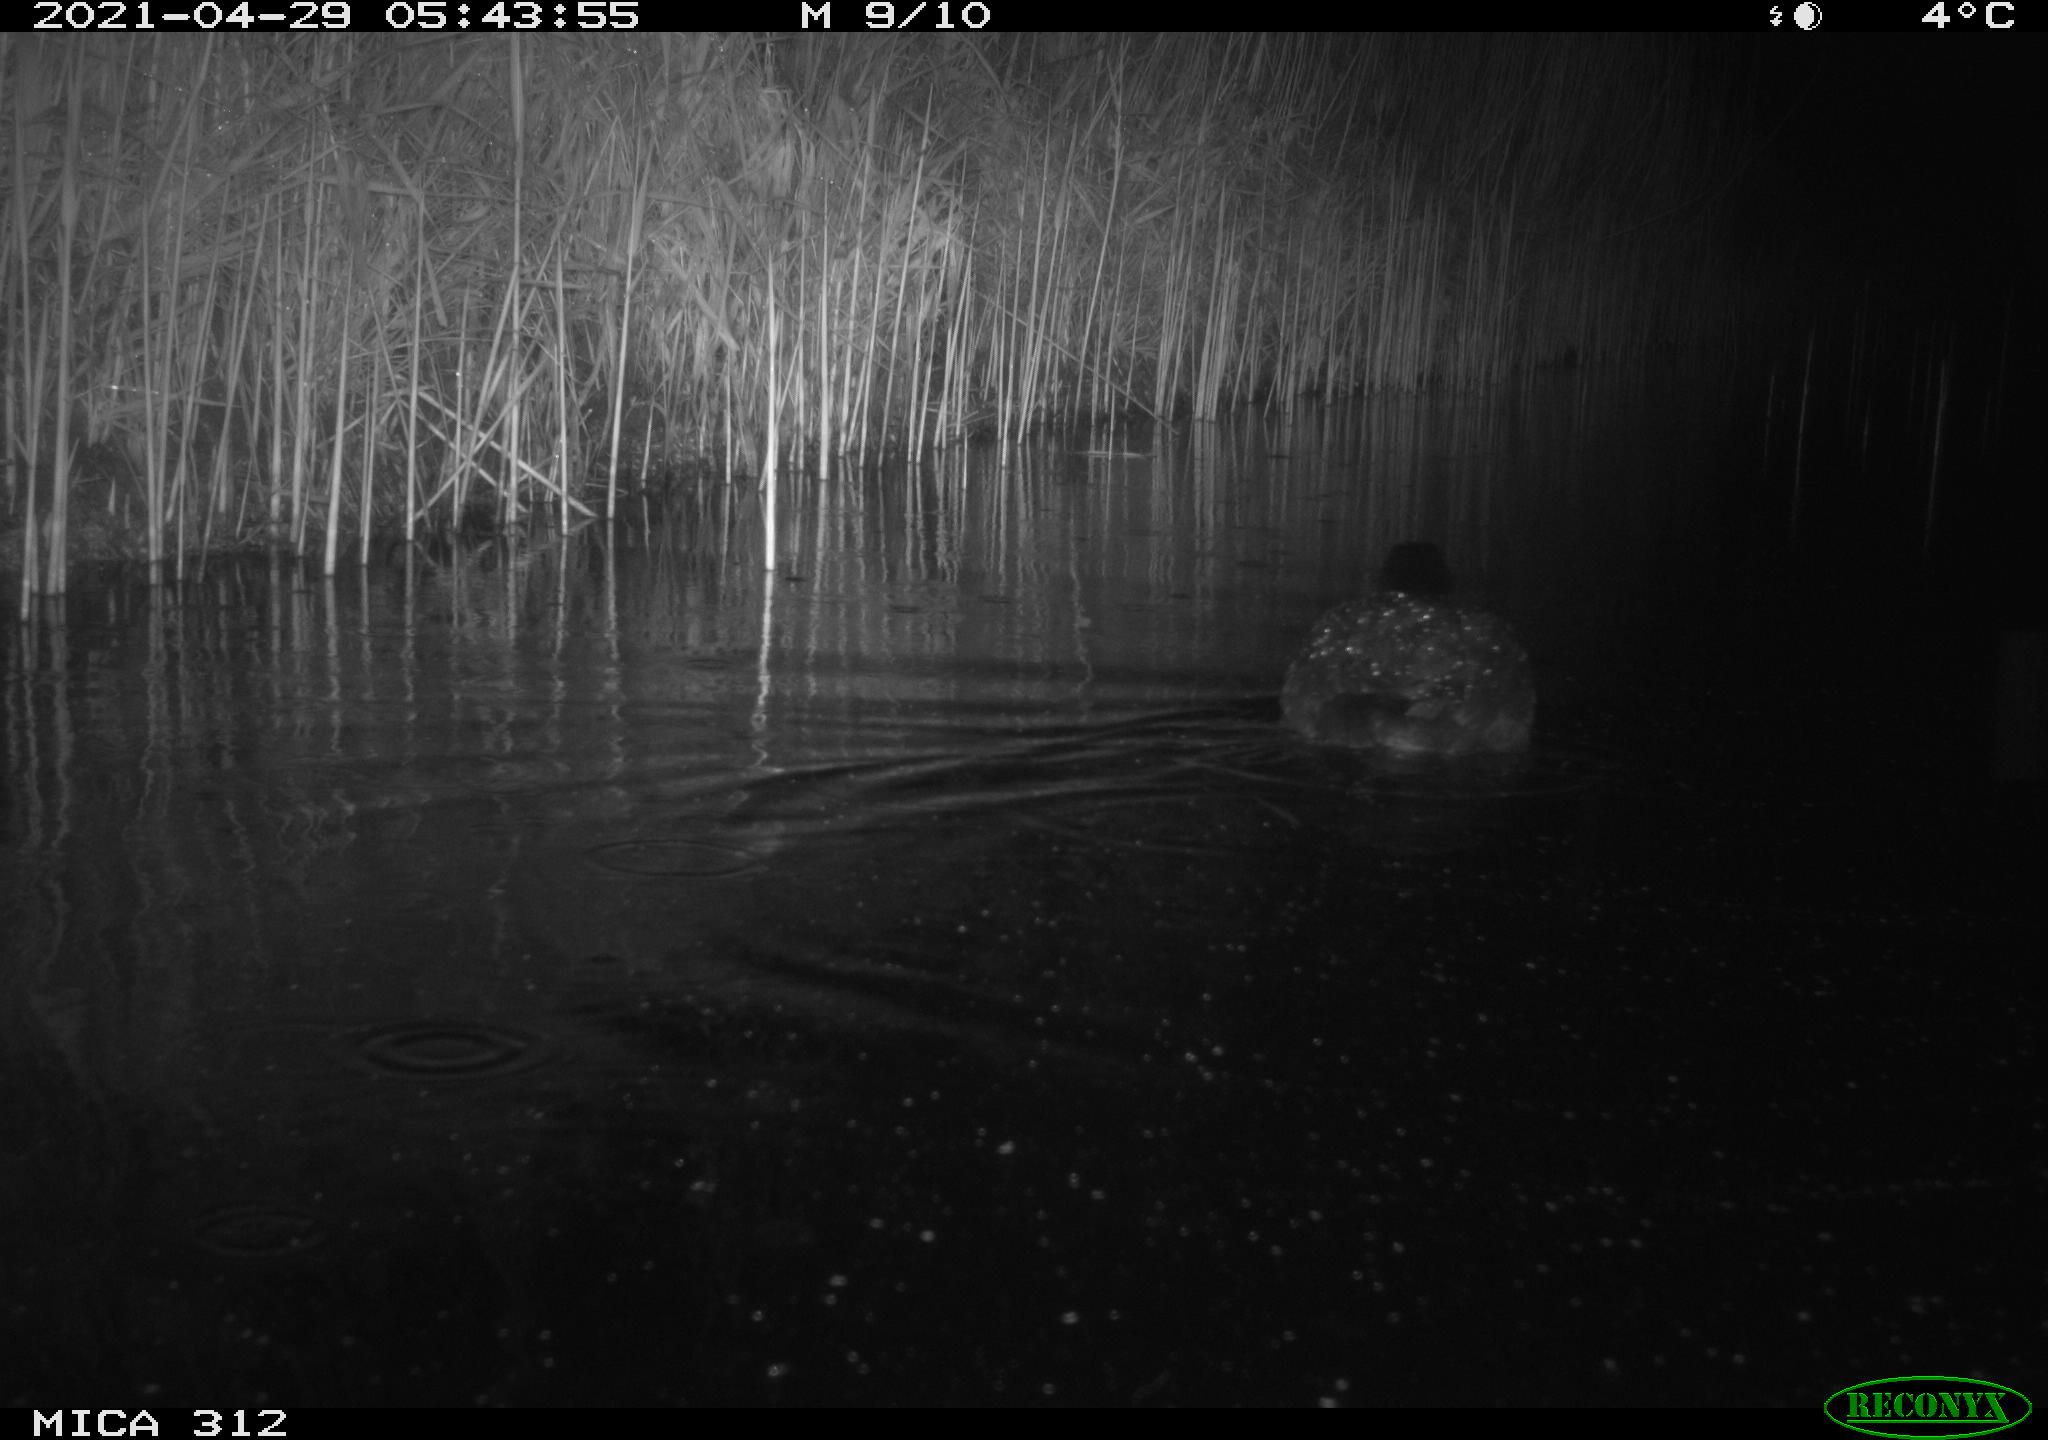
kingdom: Animalia
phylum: Chordata
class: Aves
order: Gruiformes
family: Rallidae
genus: Fulica
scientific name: Fulica atra
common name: Eurasian coot
